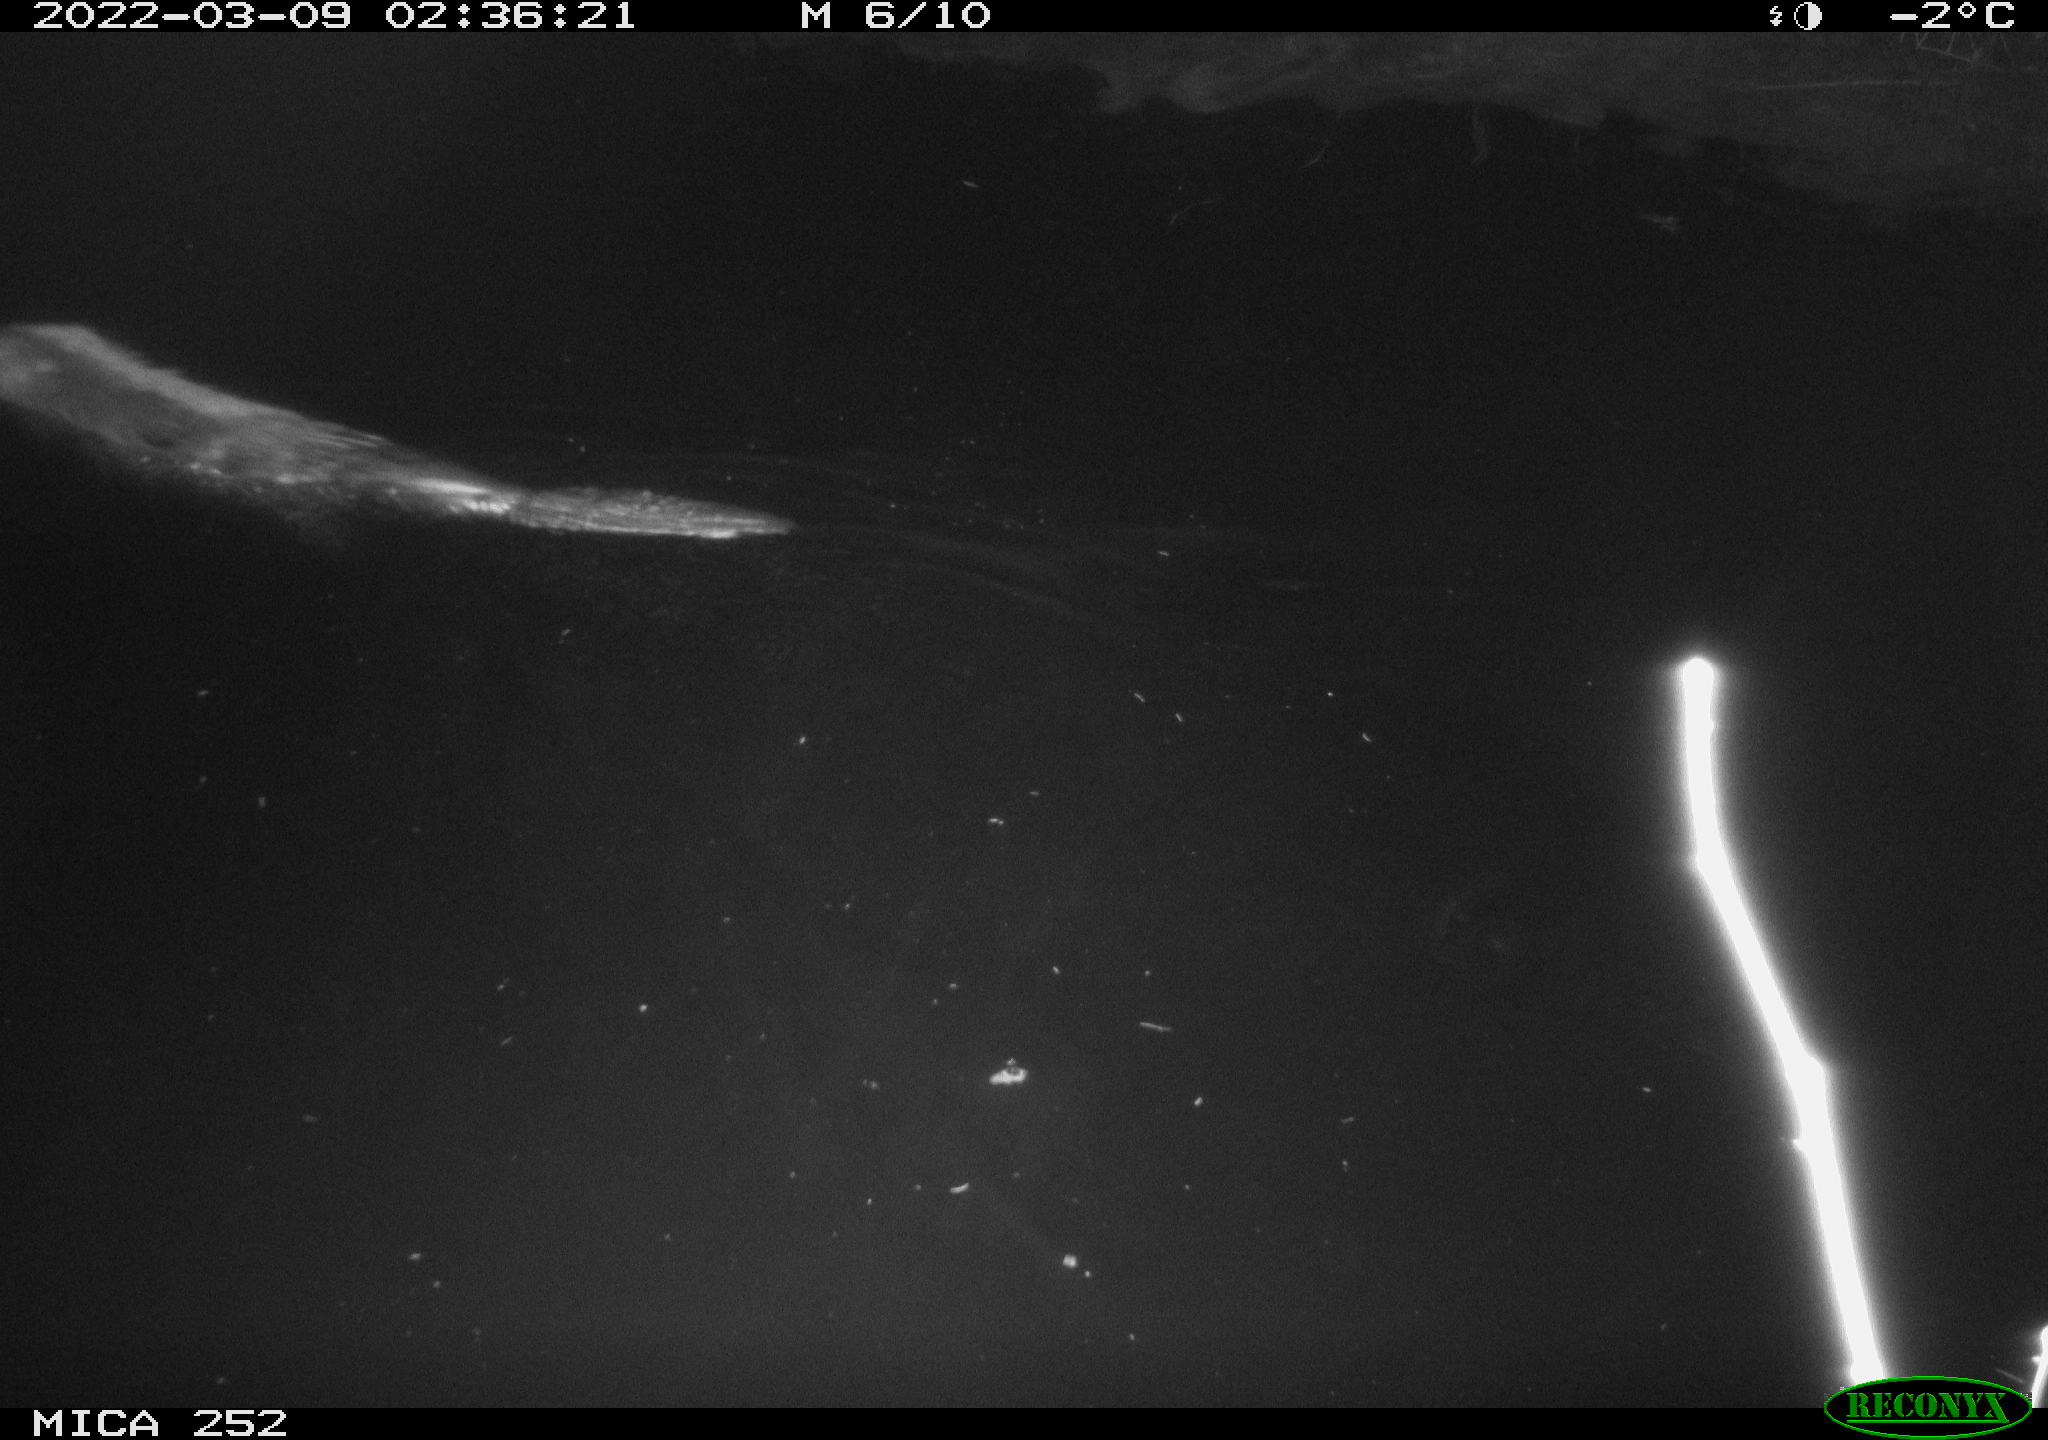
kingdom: Animalia
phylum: Chordata
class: Mammalia
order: Rodentia
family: Castoridae
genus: Castor
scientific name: Castor fiber
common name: Eurasian beaver
